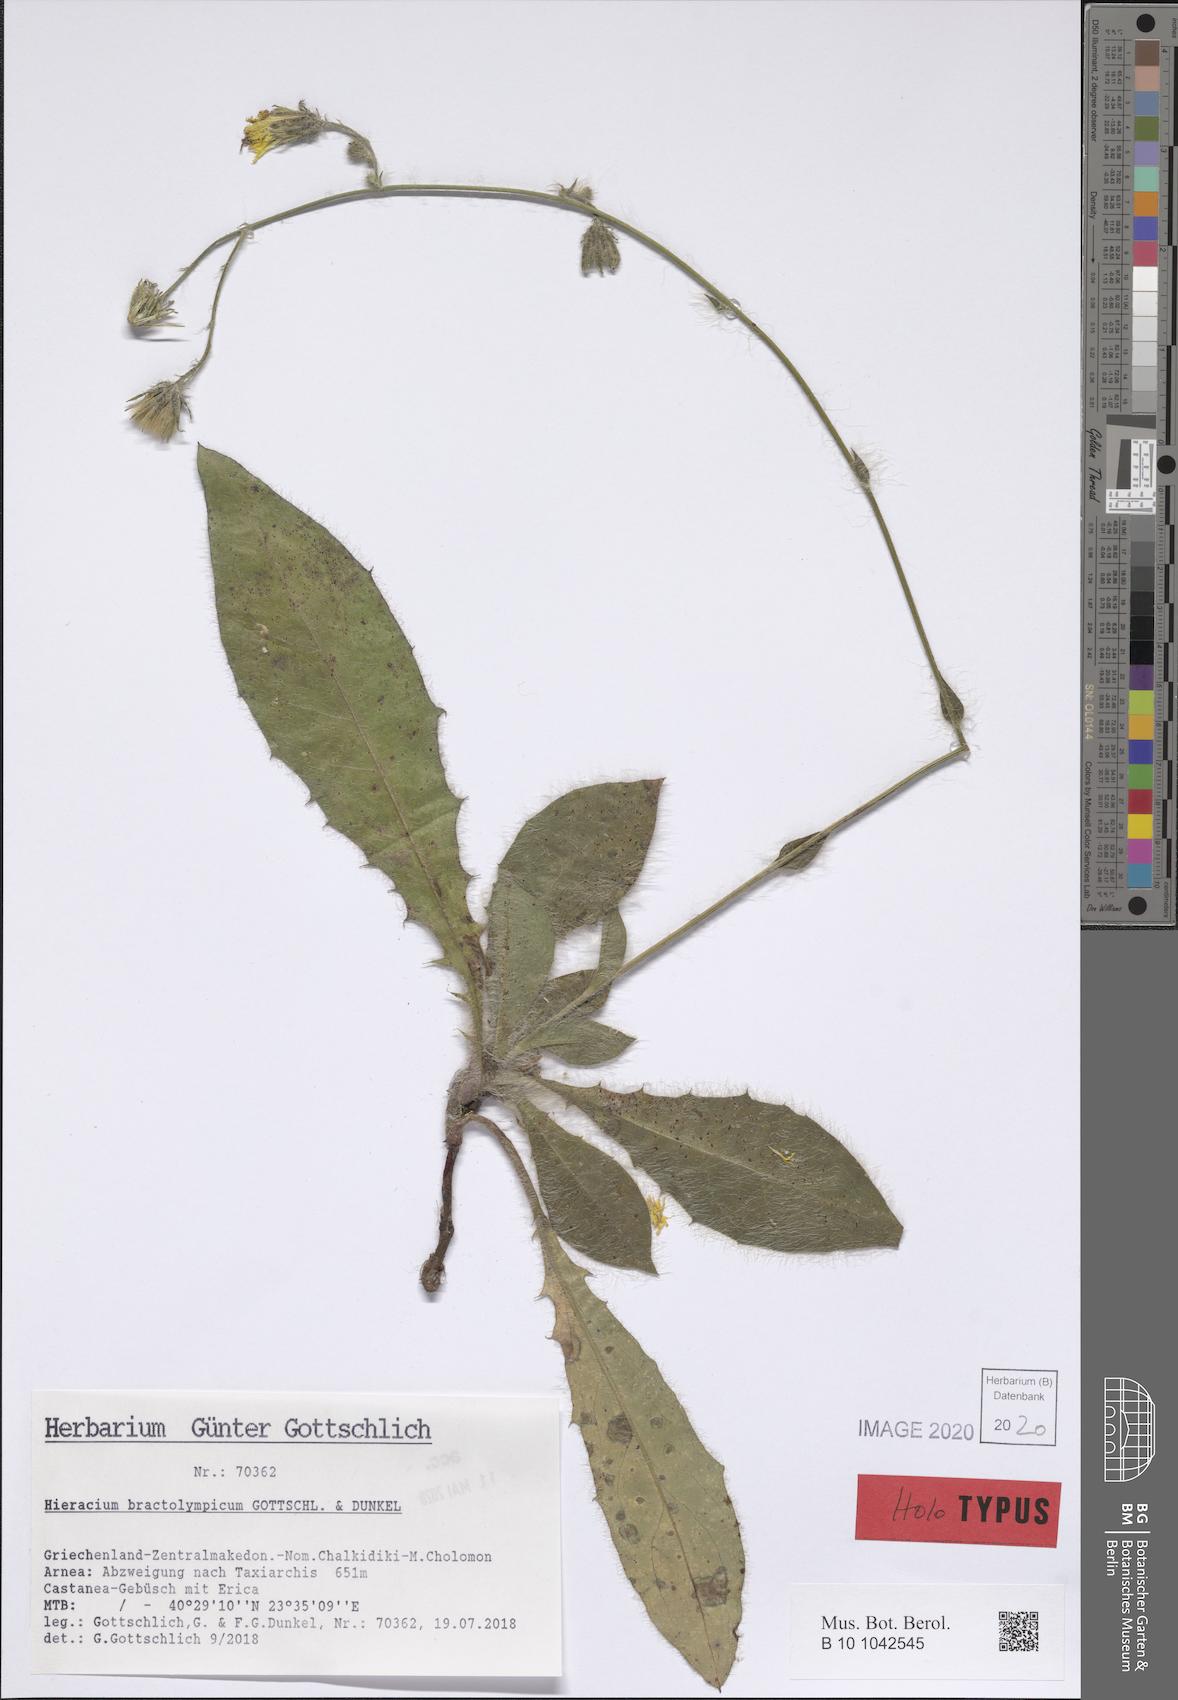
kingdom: Plantae
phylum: Tracheophyta
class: Magnoliopsida
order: Asterales
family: Asteraceae
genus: Hieracium
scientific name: Hieracium bractolympicum
